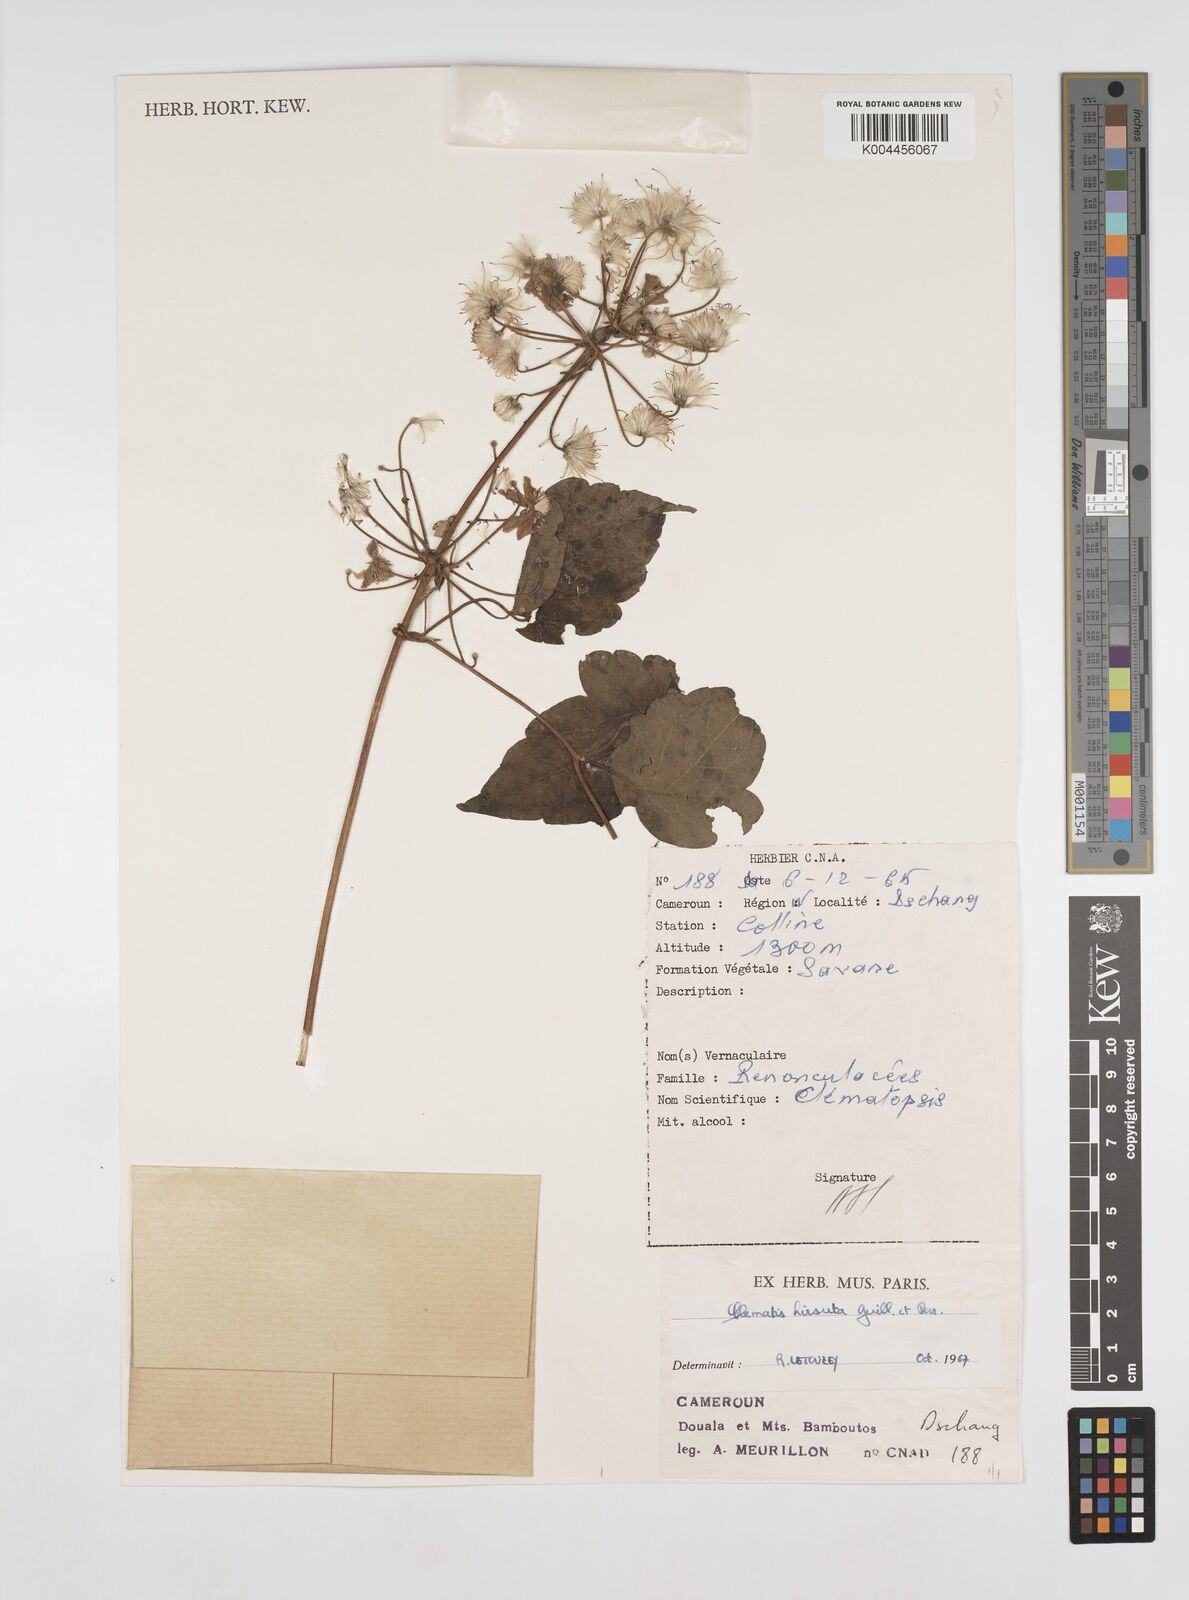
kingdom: Plantae
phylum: Tracheophyta
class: Magnoliopsida
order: Ranunculales
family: Ranunculaceae
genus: Clematis
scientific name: Clematis hirsuta
